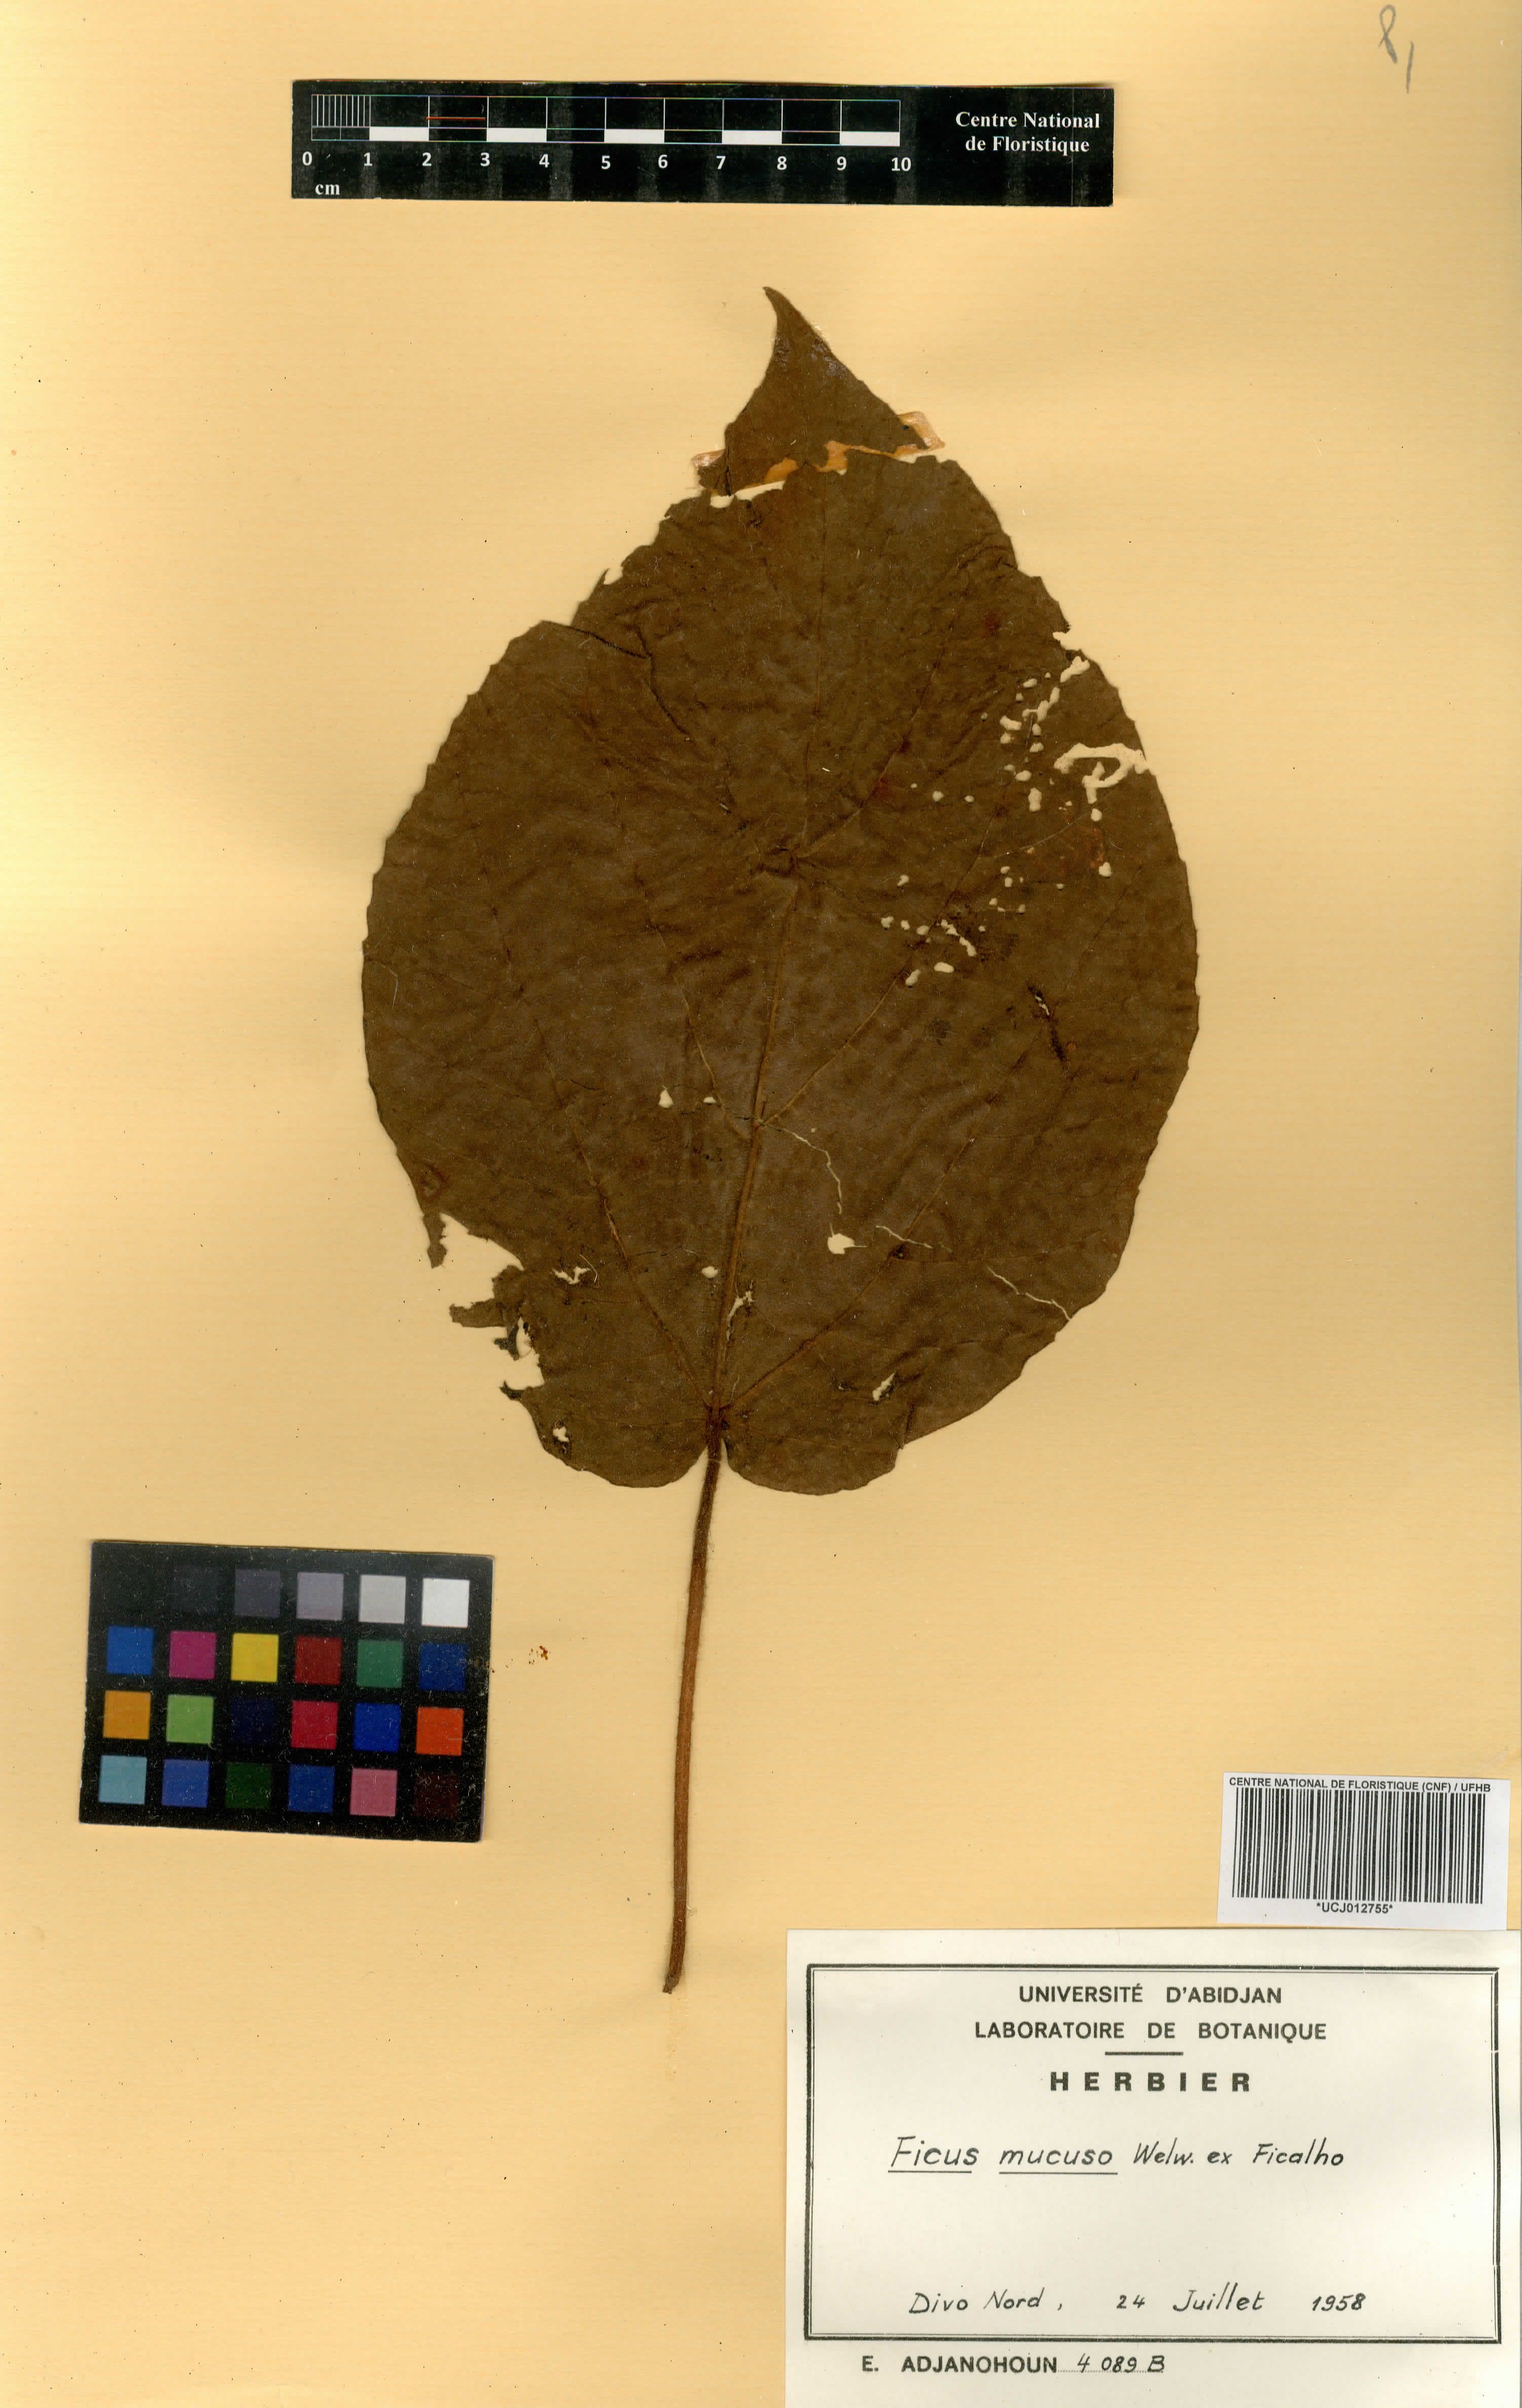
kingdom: Plantae
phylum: Tracheophyta
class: Magnoliopsida
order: Rosales
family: Moraceae
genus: Ficus
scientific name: Ficus mucuso
